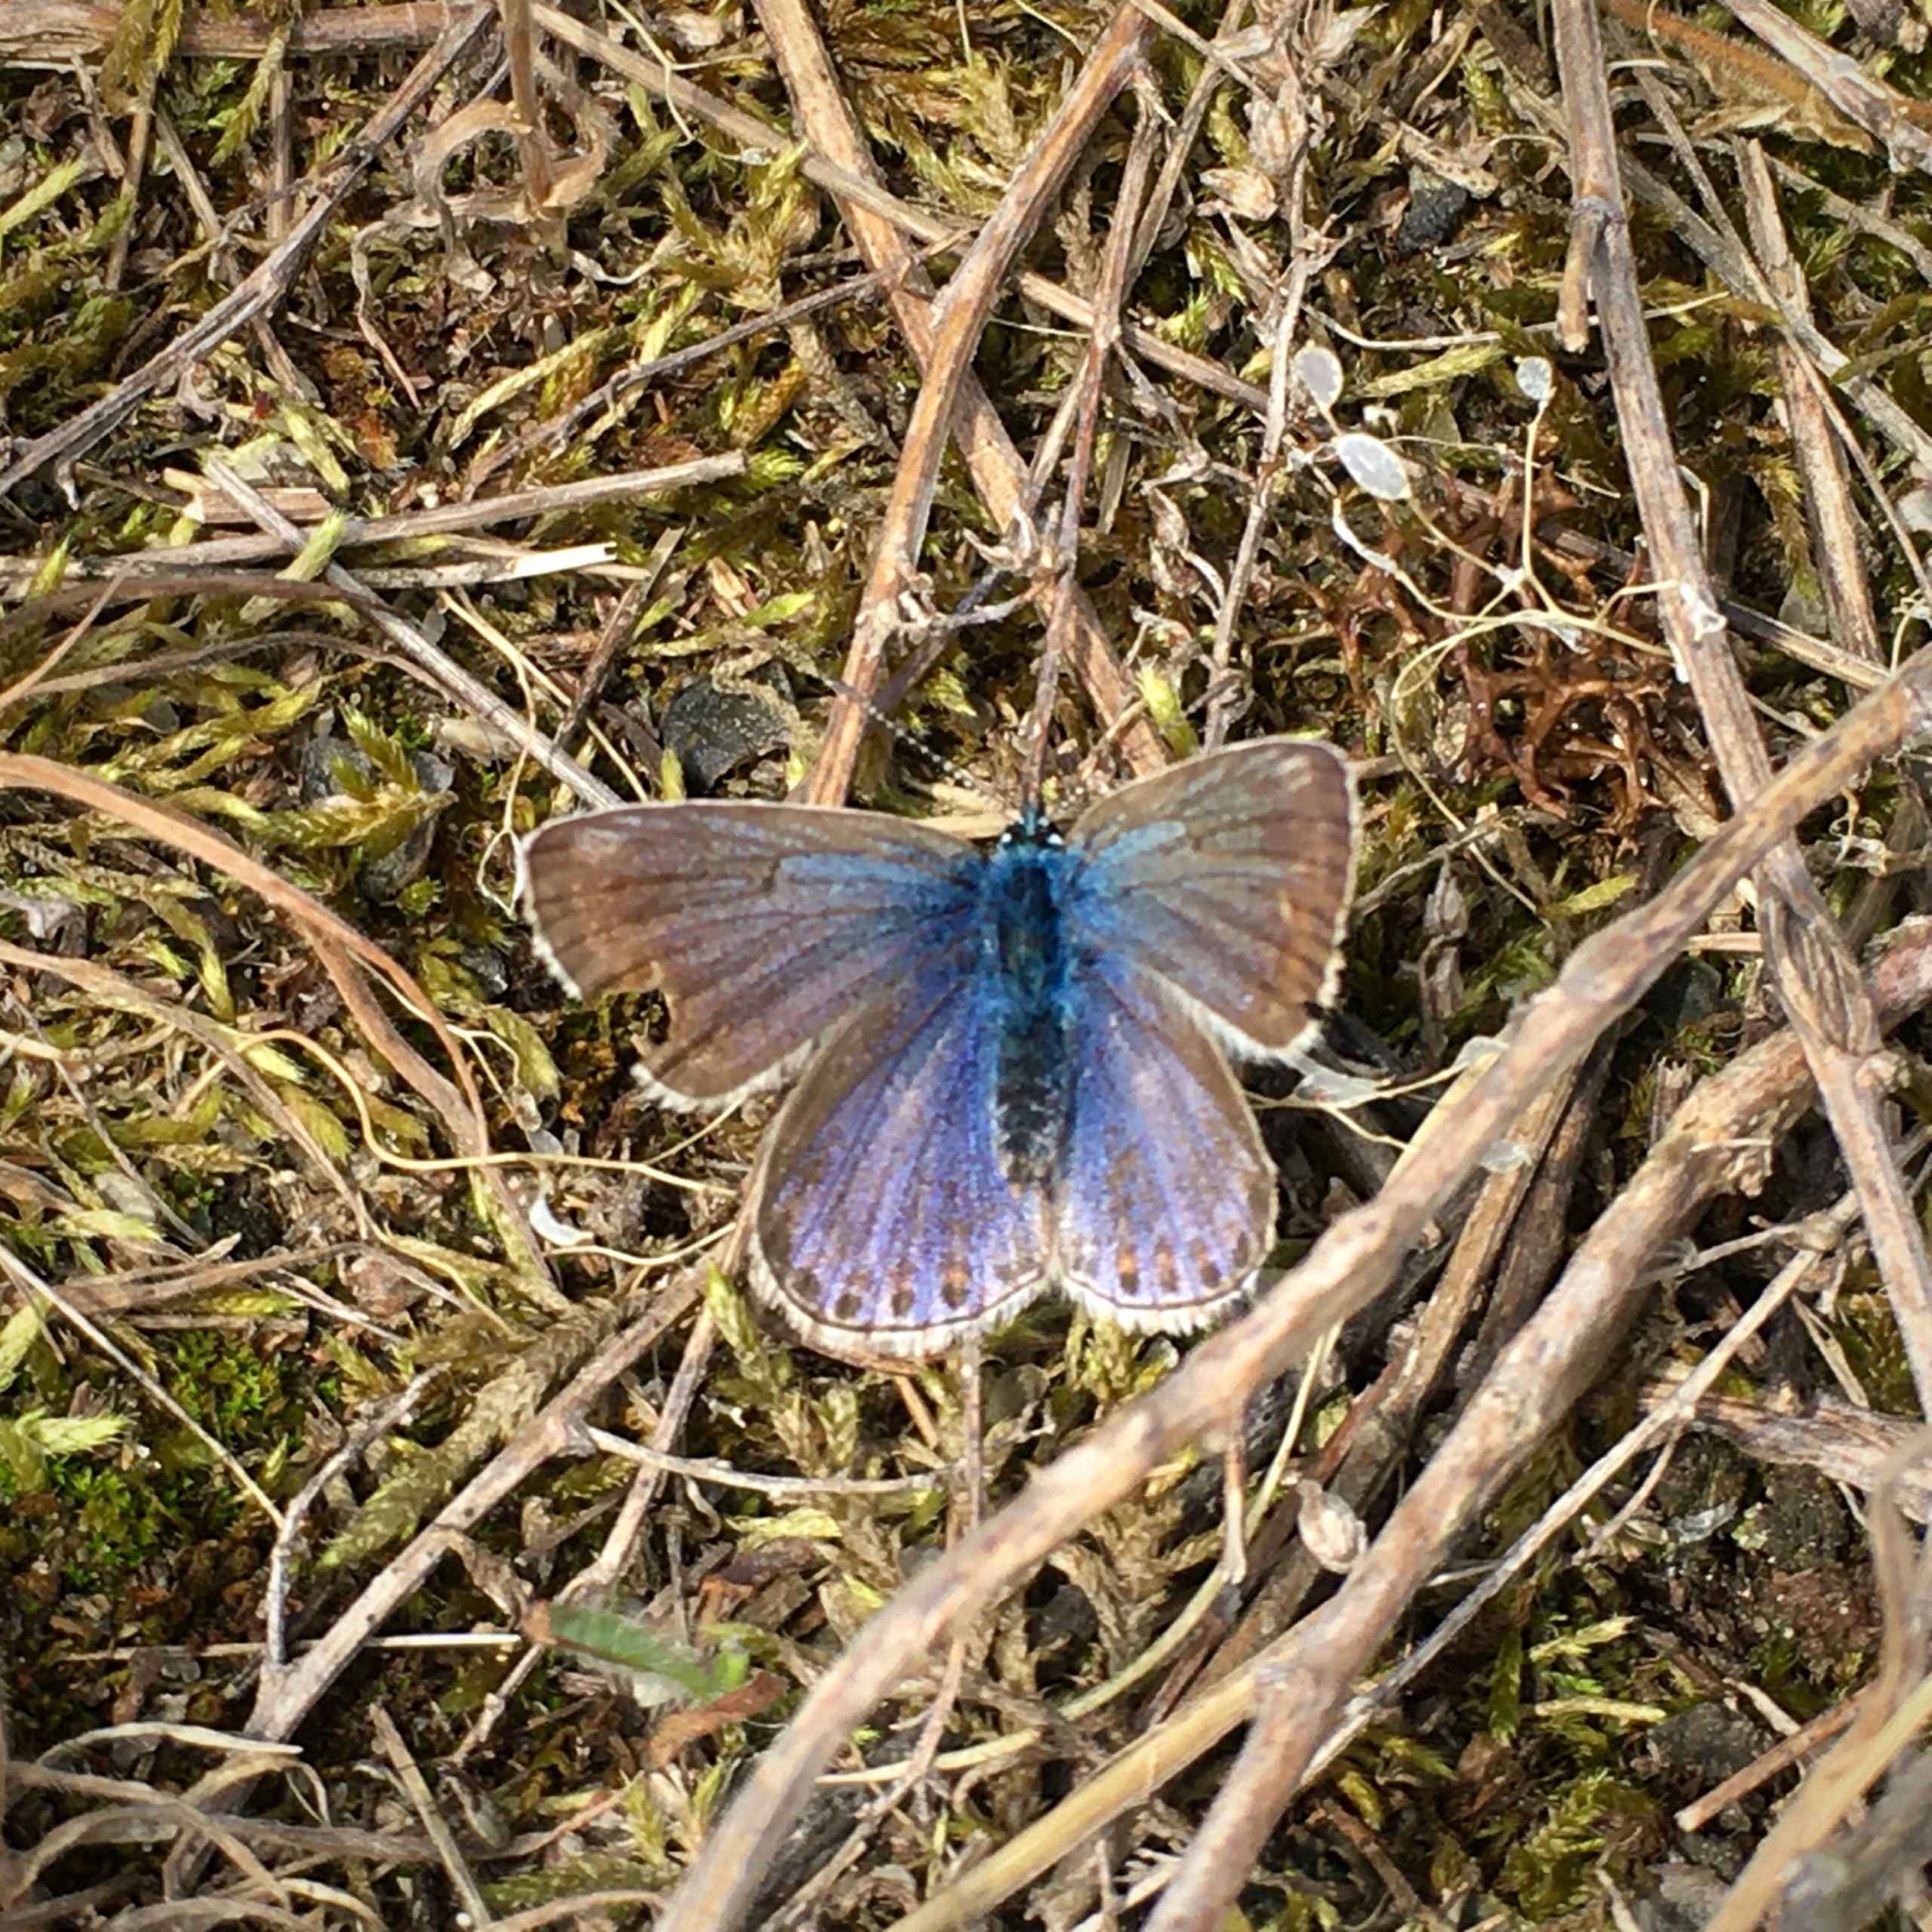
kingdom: Animalia
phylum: Arthropoda
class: Insecta
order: Lepidoptera
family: Lycaenidae
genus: Polyommatus
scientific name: Polyommatus icarus
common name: Almindelig blåfugl
